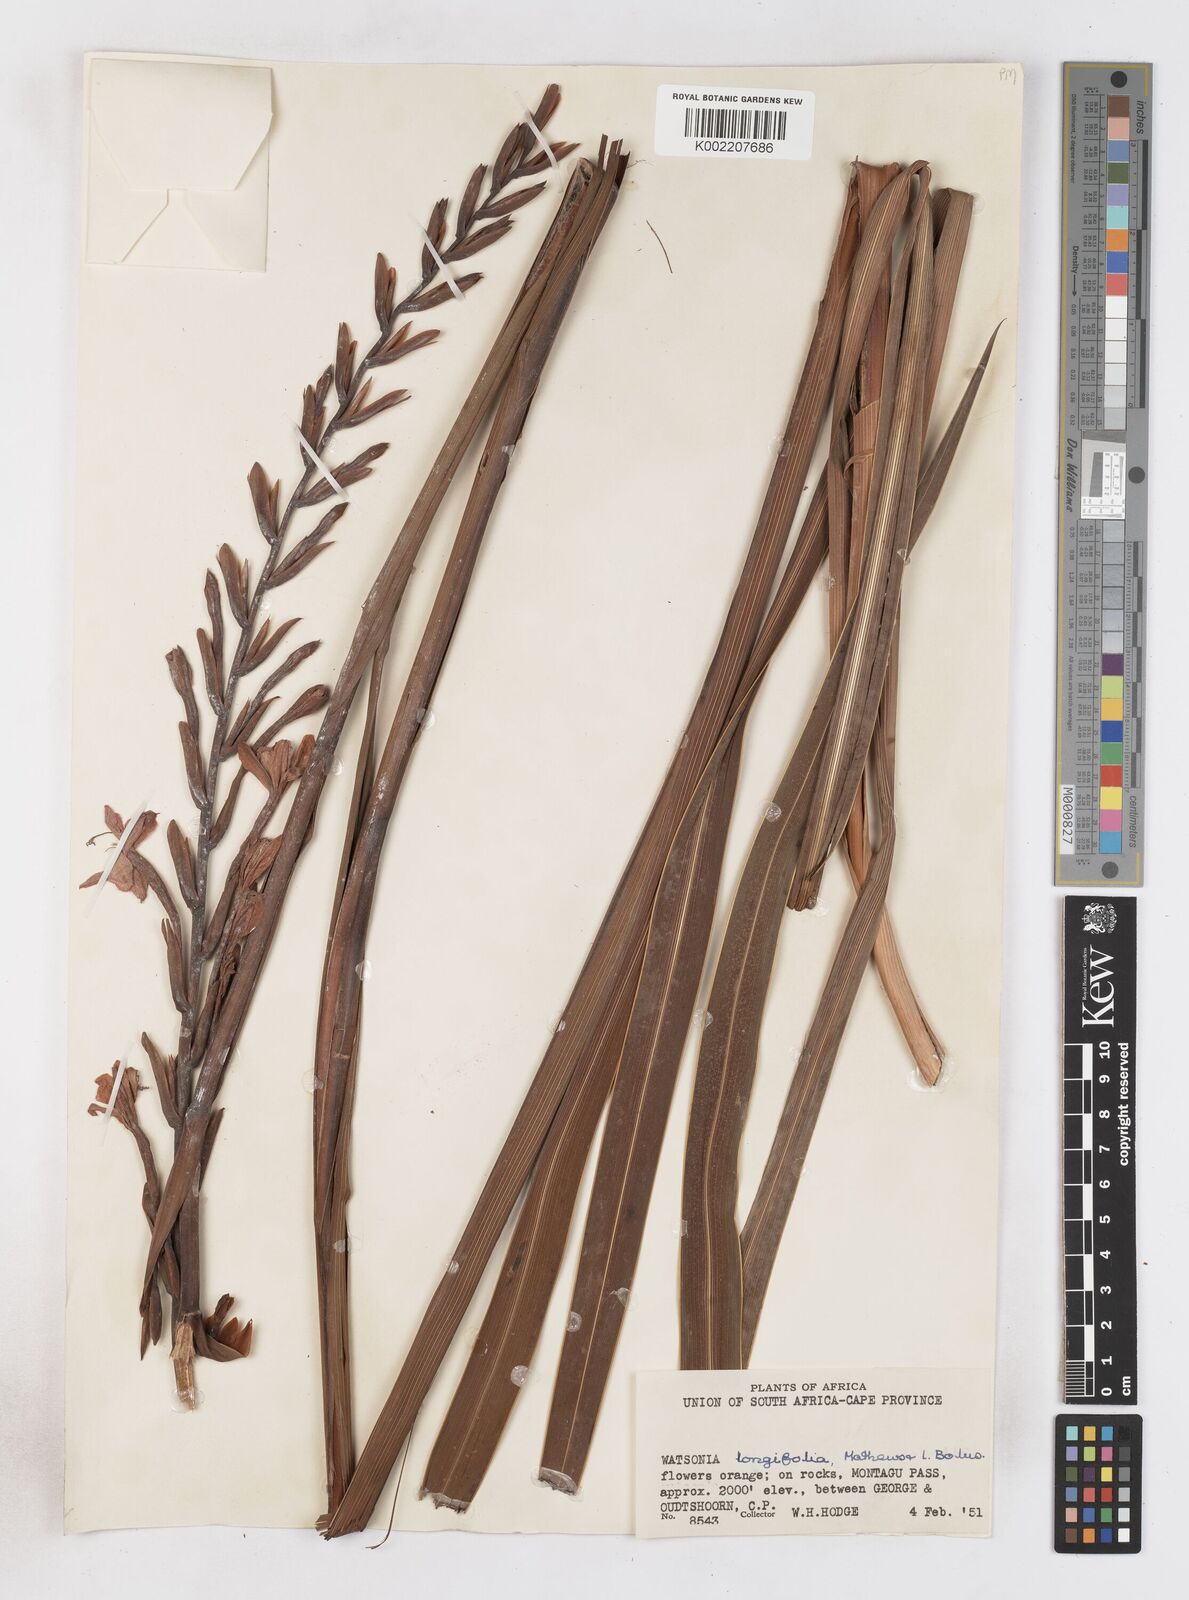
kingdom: Plantae
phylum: Tracheophyta
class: Liliopsida
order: Asparagales
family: Iridaceae
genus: Watsonia
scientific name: Watsonia longifolia
